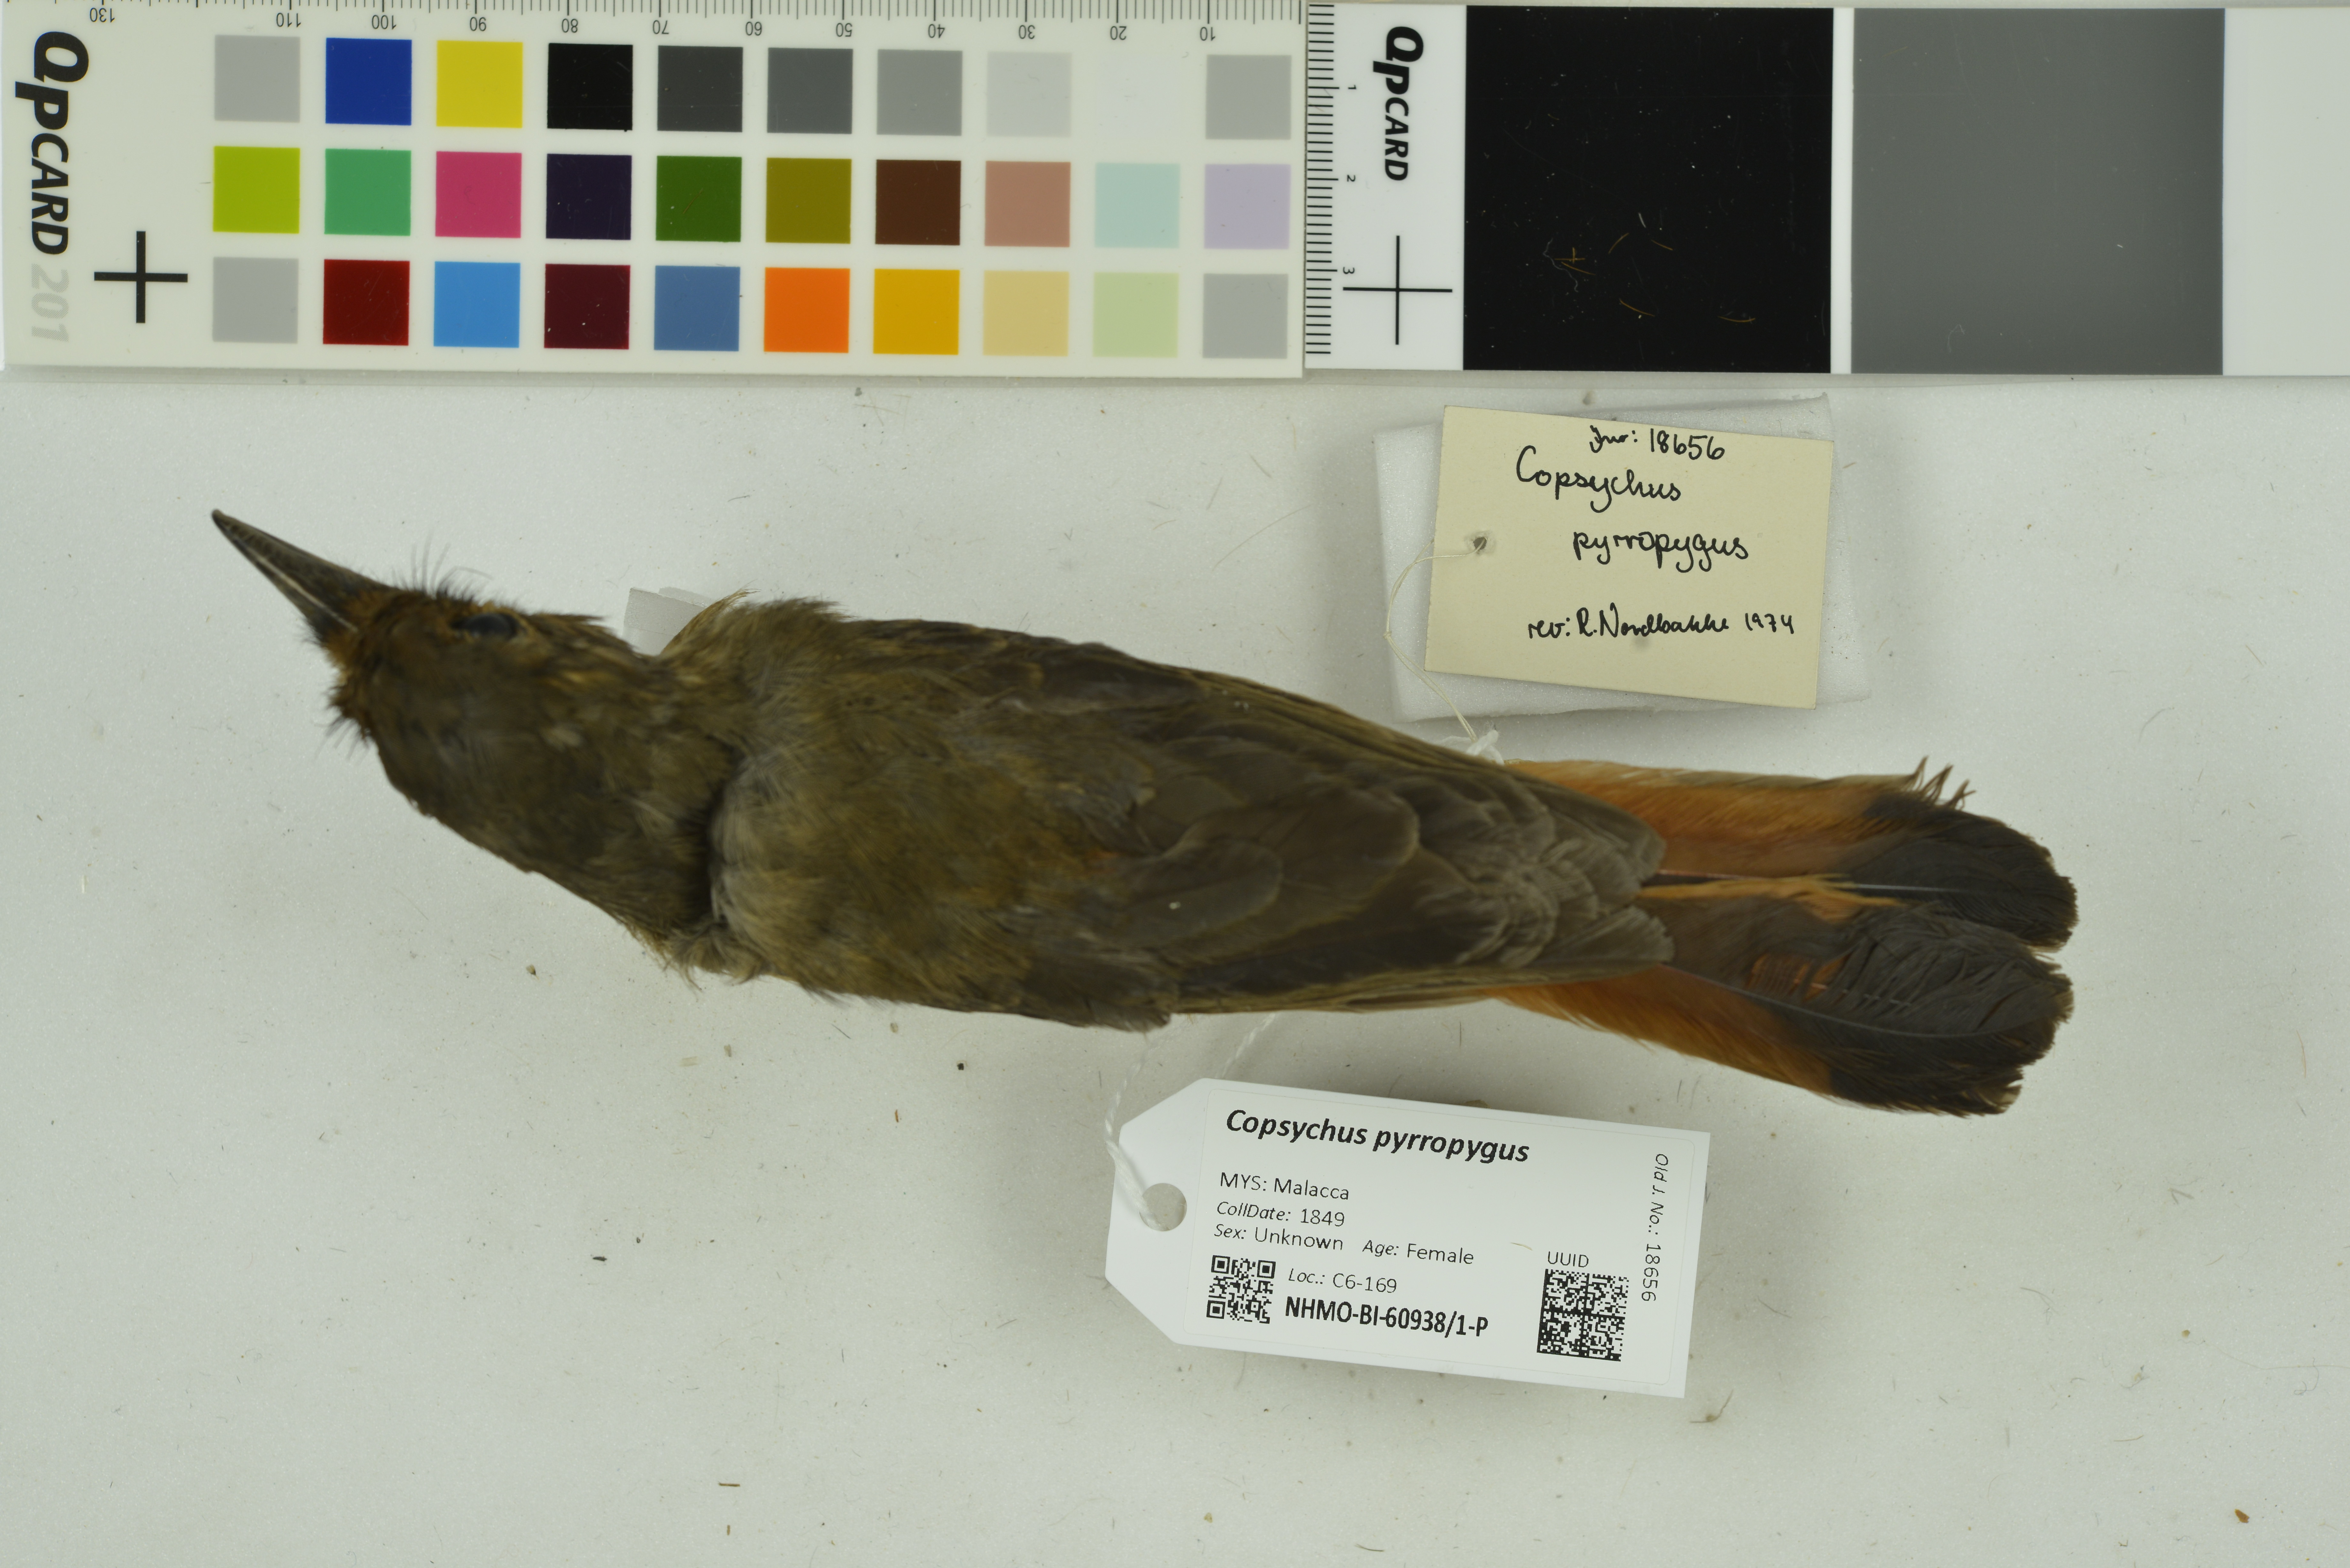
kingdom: Animalia
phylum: Chordata
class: Aves
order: Passeriformes
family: Muscicapidae
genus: Trichixos
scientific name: Trichixos pyrropygus
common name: Rufous-tailed shama
